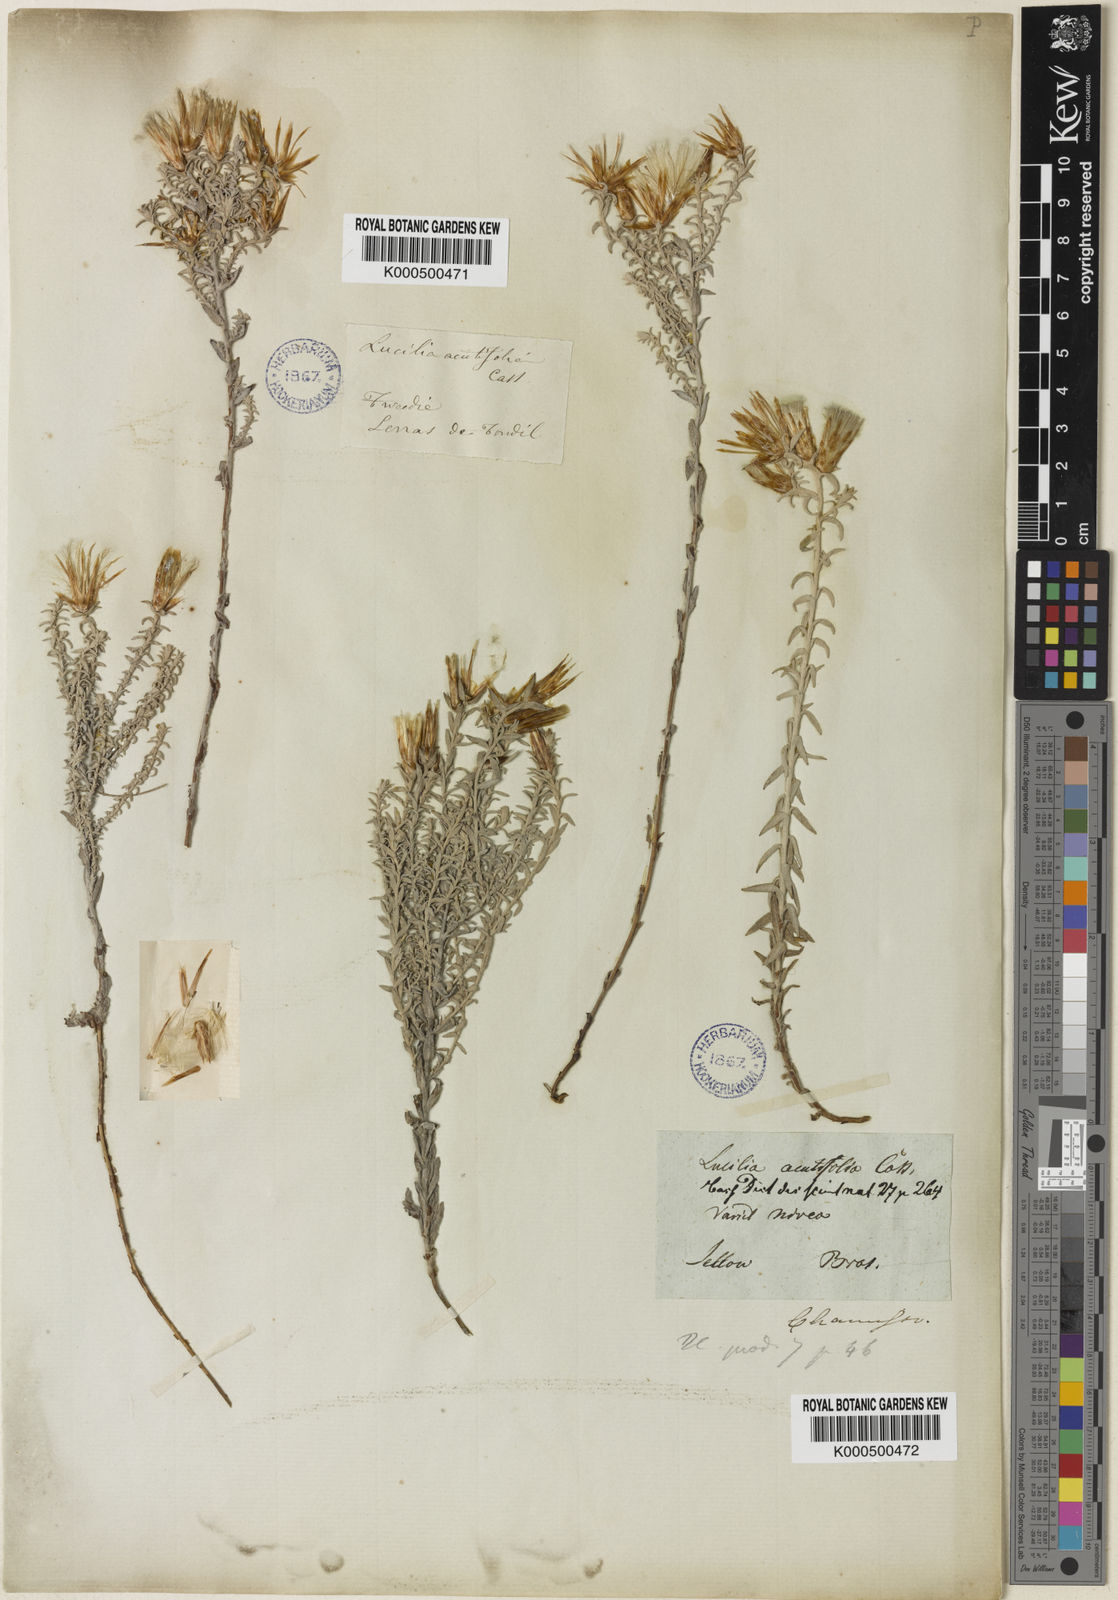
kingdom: Plantae
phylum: Tracheophyta
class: Magnoliopsida
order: Asterales
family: Asteraceae
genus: Lucilia
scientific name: Lucilia acutifolia
